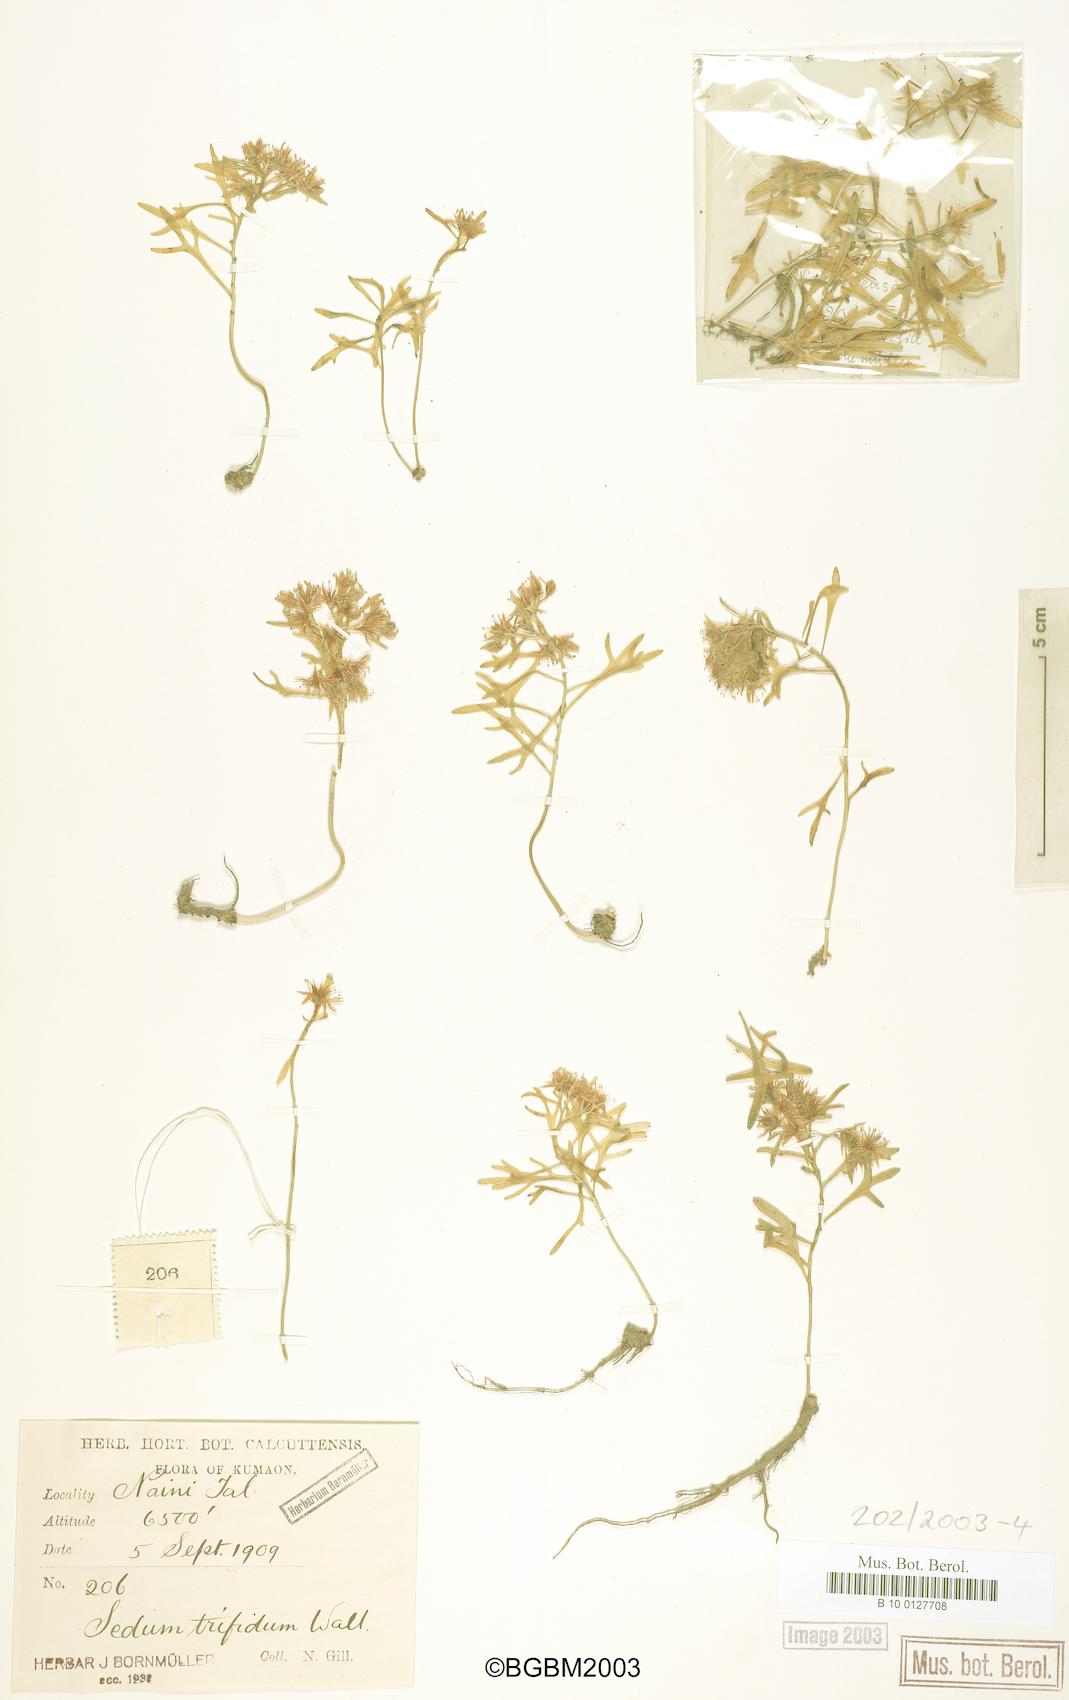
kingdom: Plantae
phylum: Tracheophyta
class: Magnoliopsida
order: Saxifragales
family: Crassulaceae
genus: Sedum
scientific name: Sedum trifidum
